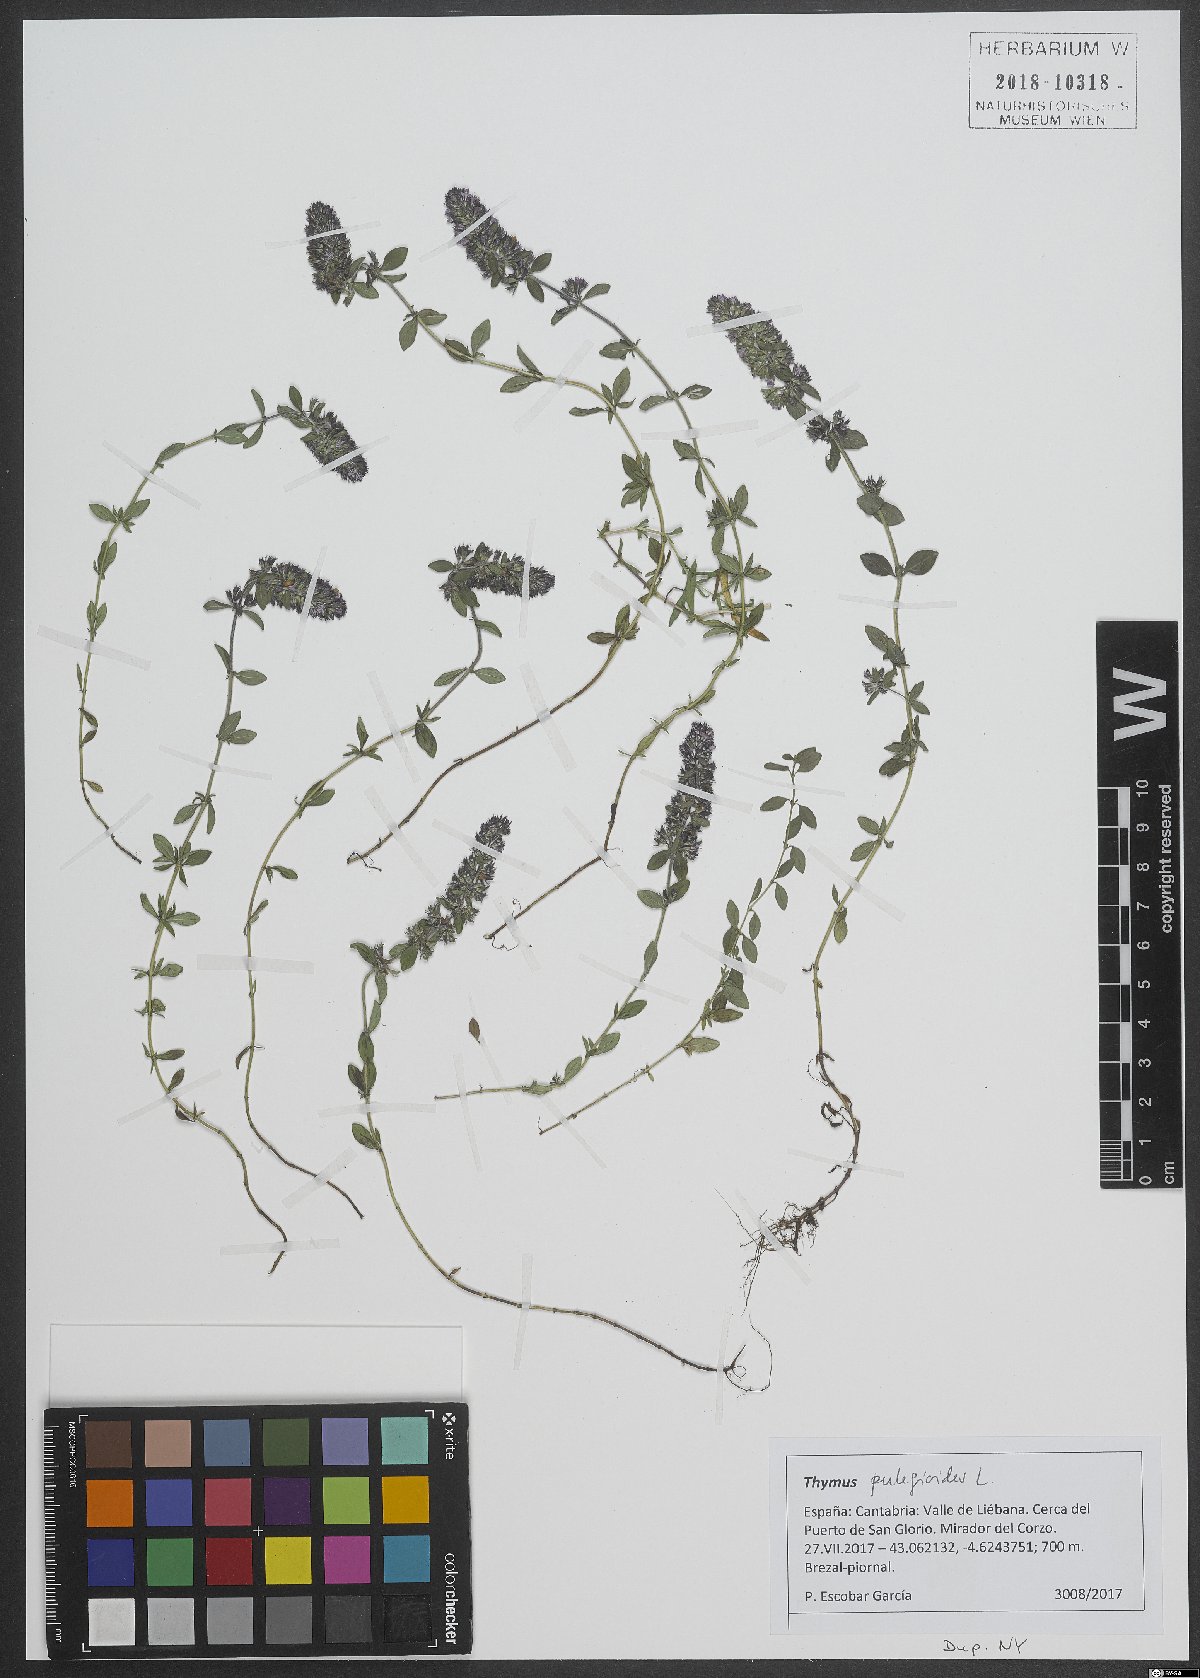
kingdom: Plantae
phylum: Tracheophyta
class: Magnoliopsida
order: Lamiales
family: Lamiaceae
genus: Thymus
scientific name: Thymus pulegioides
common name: Large thyme
